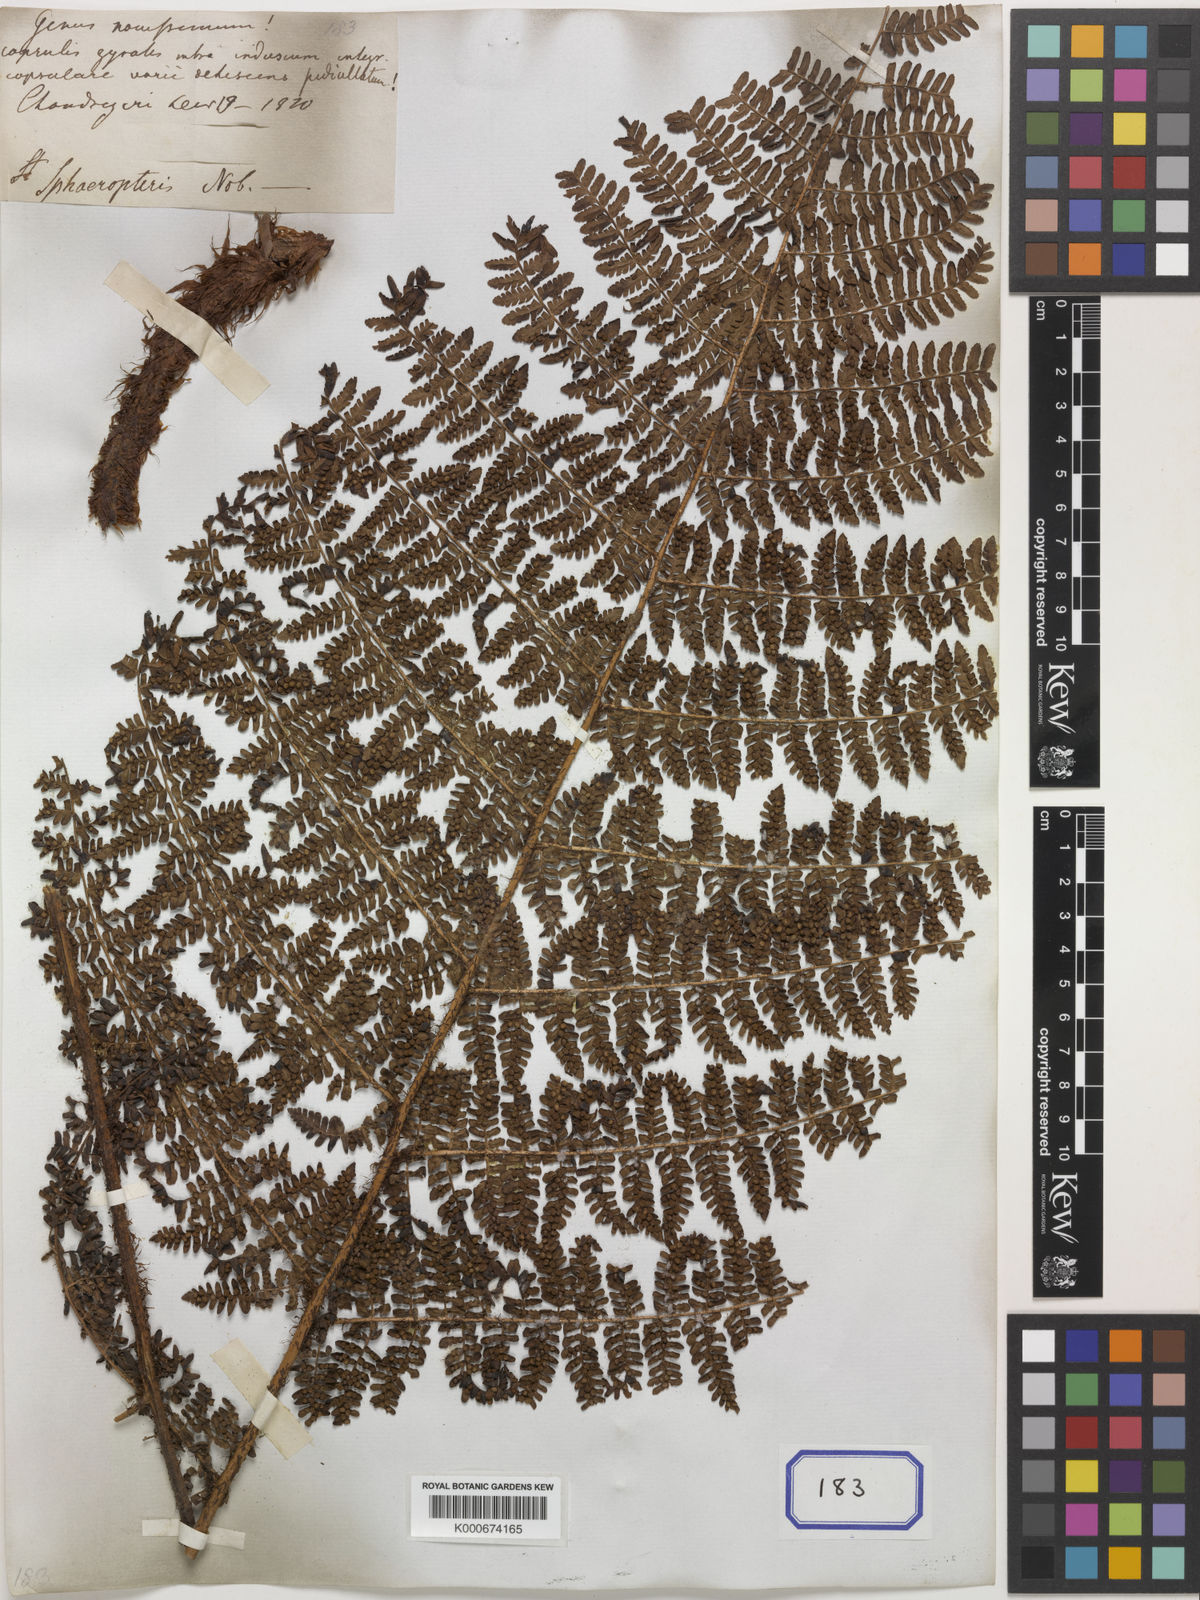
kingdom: Plantae
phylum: Tracheophyta
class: Polypodiopsida
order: Polypodiales
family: Dryopteridaceae
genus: Dryopteris
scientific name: Dryopteris peranema
